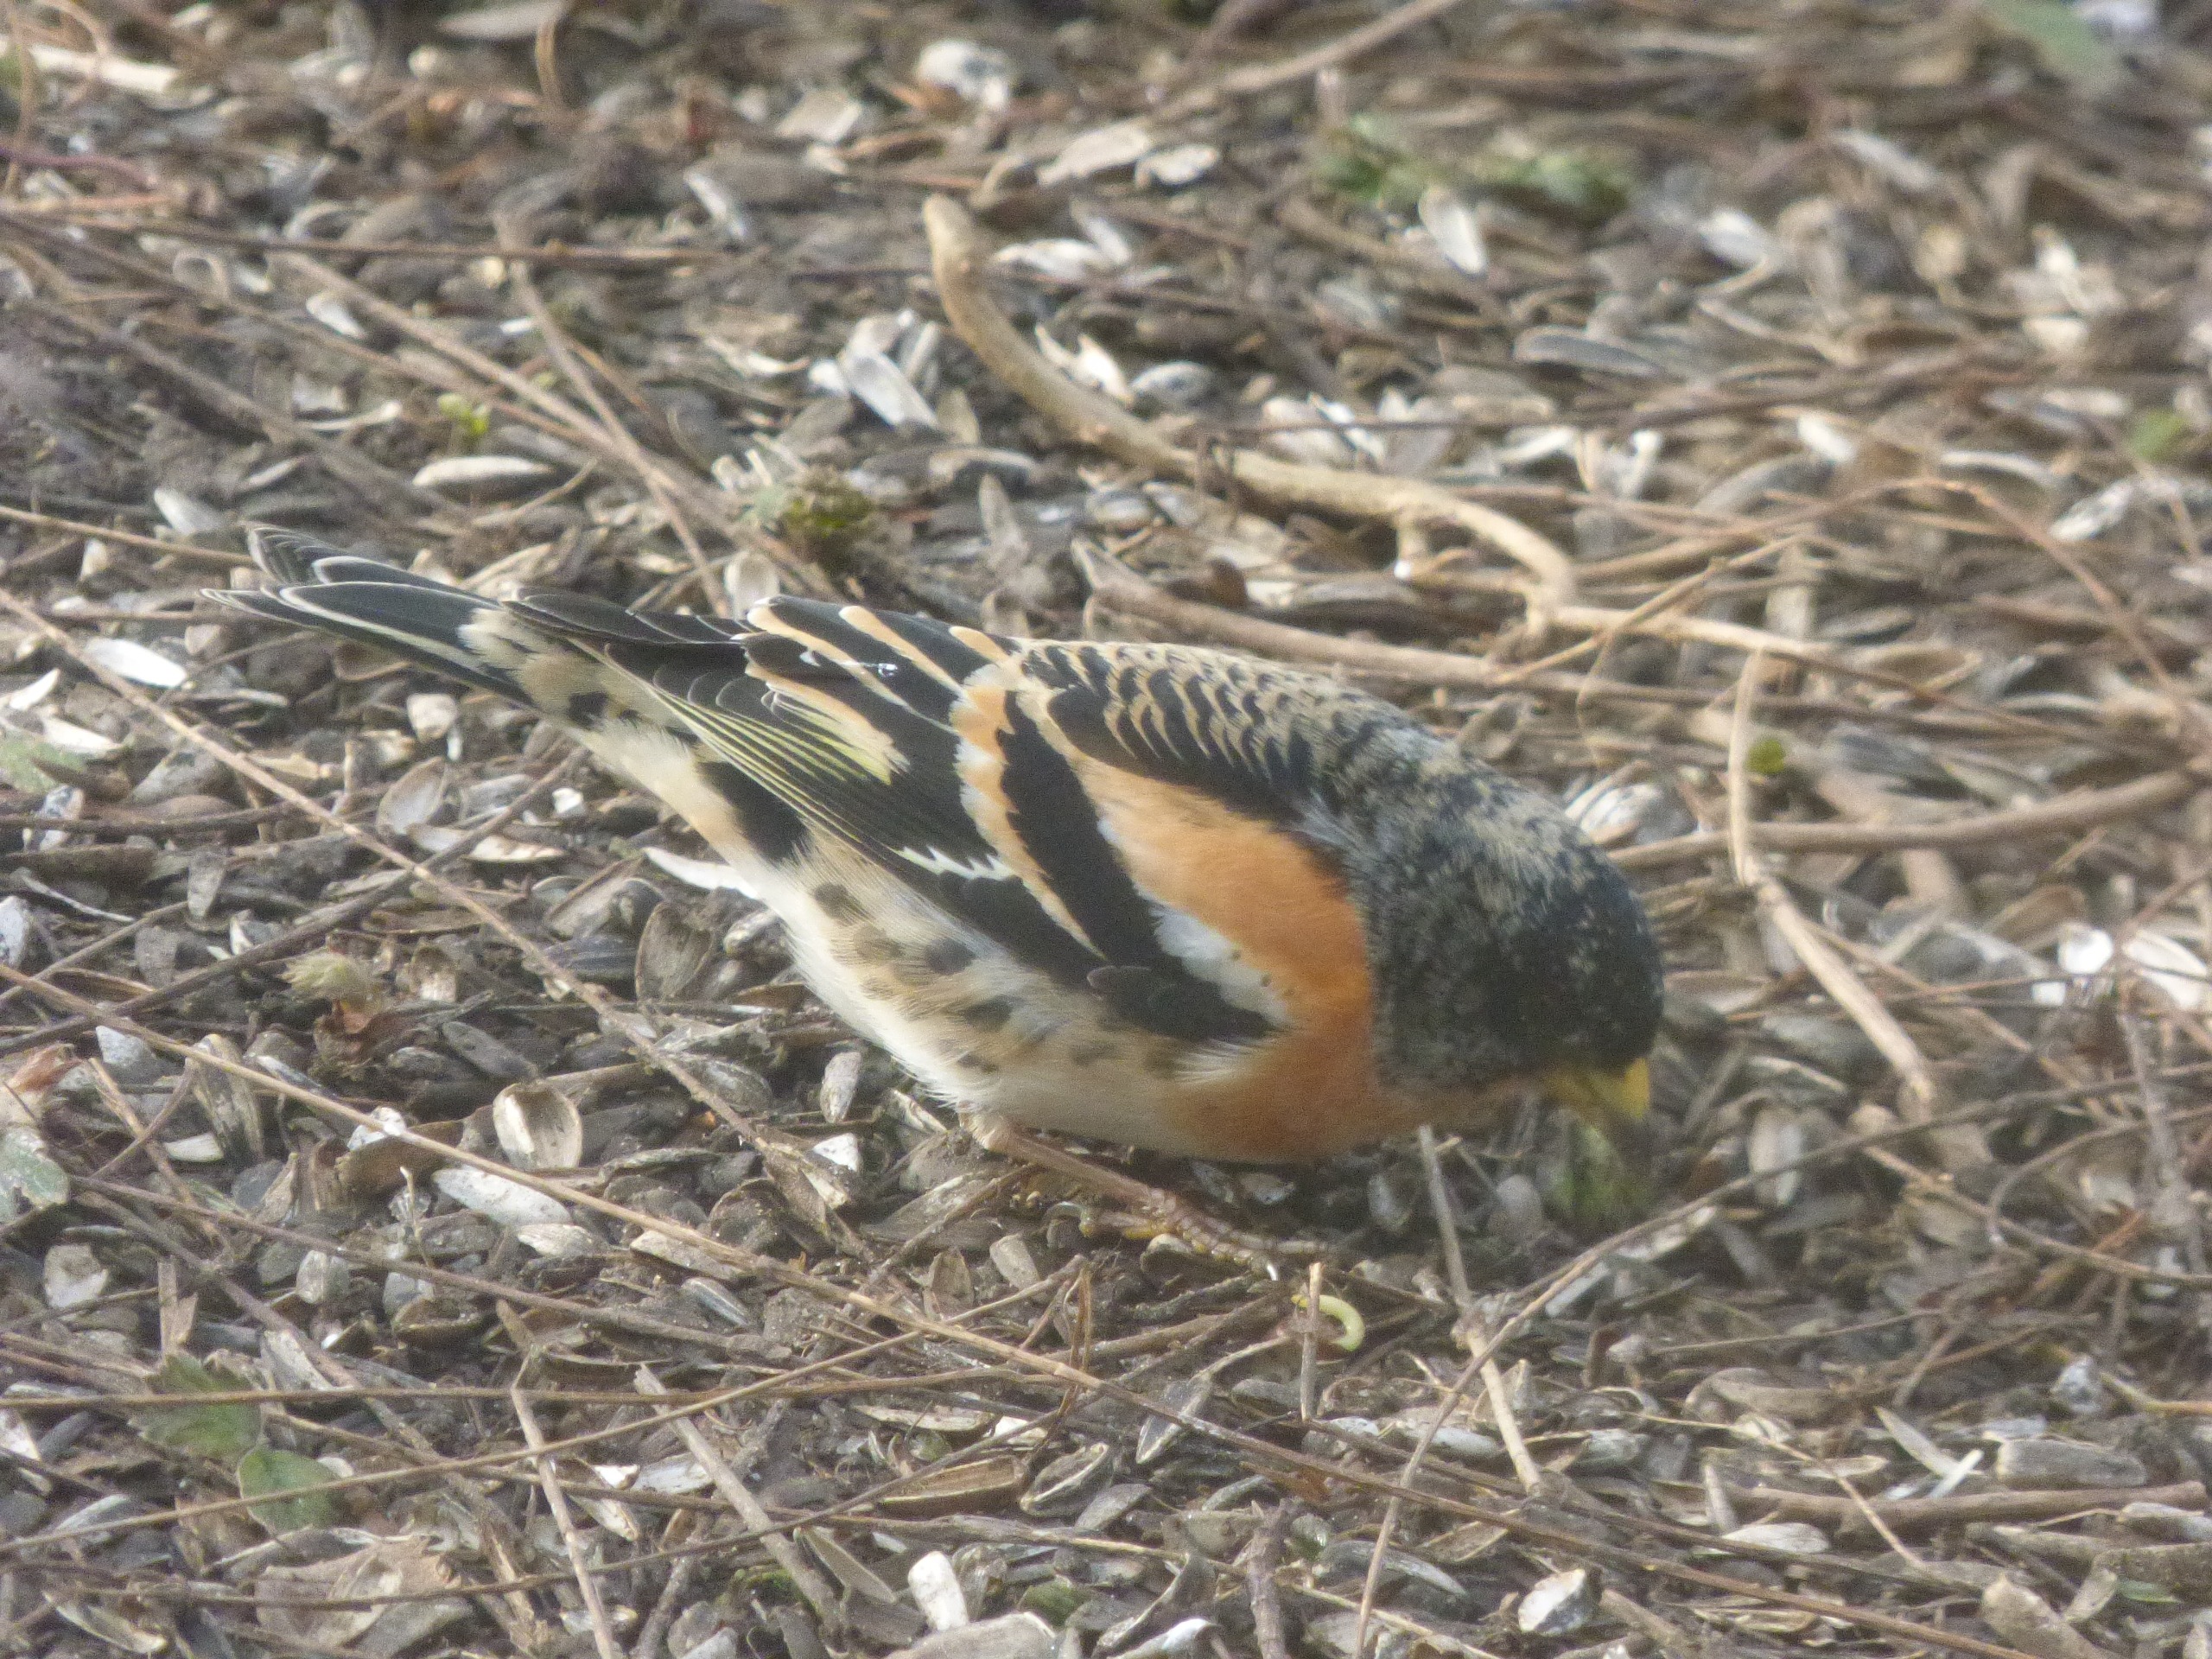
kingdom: Animalia
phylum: Chordata
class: Aves
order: Passeriformes
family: Fringillidae
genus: Fringilla
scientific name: Fringilla montifringilla
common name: Kvækerfinke
